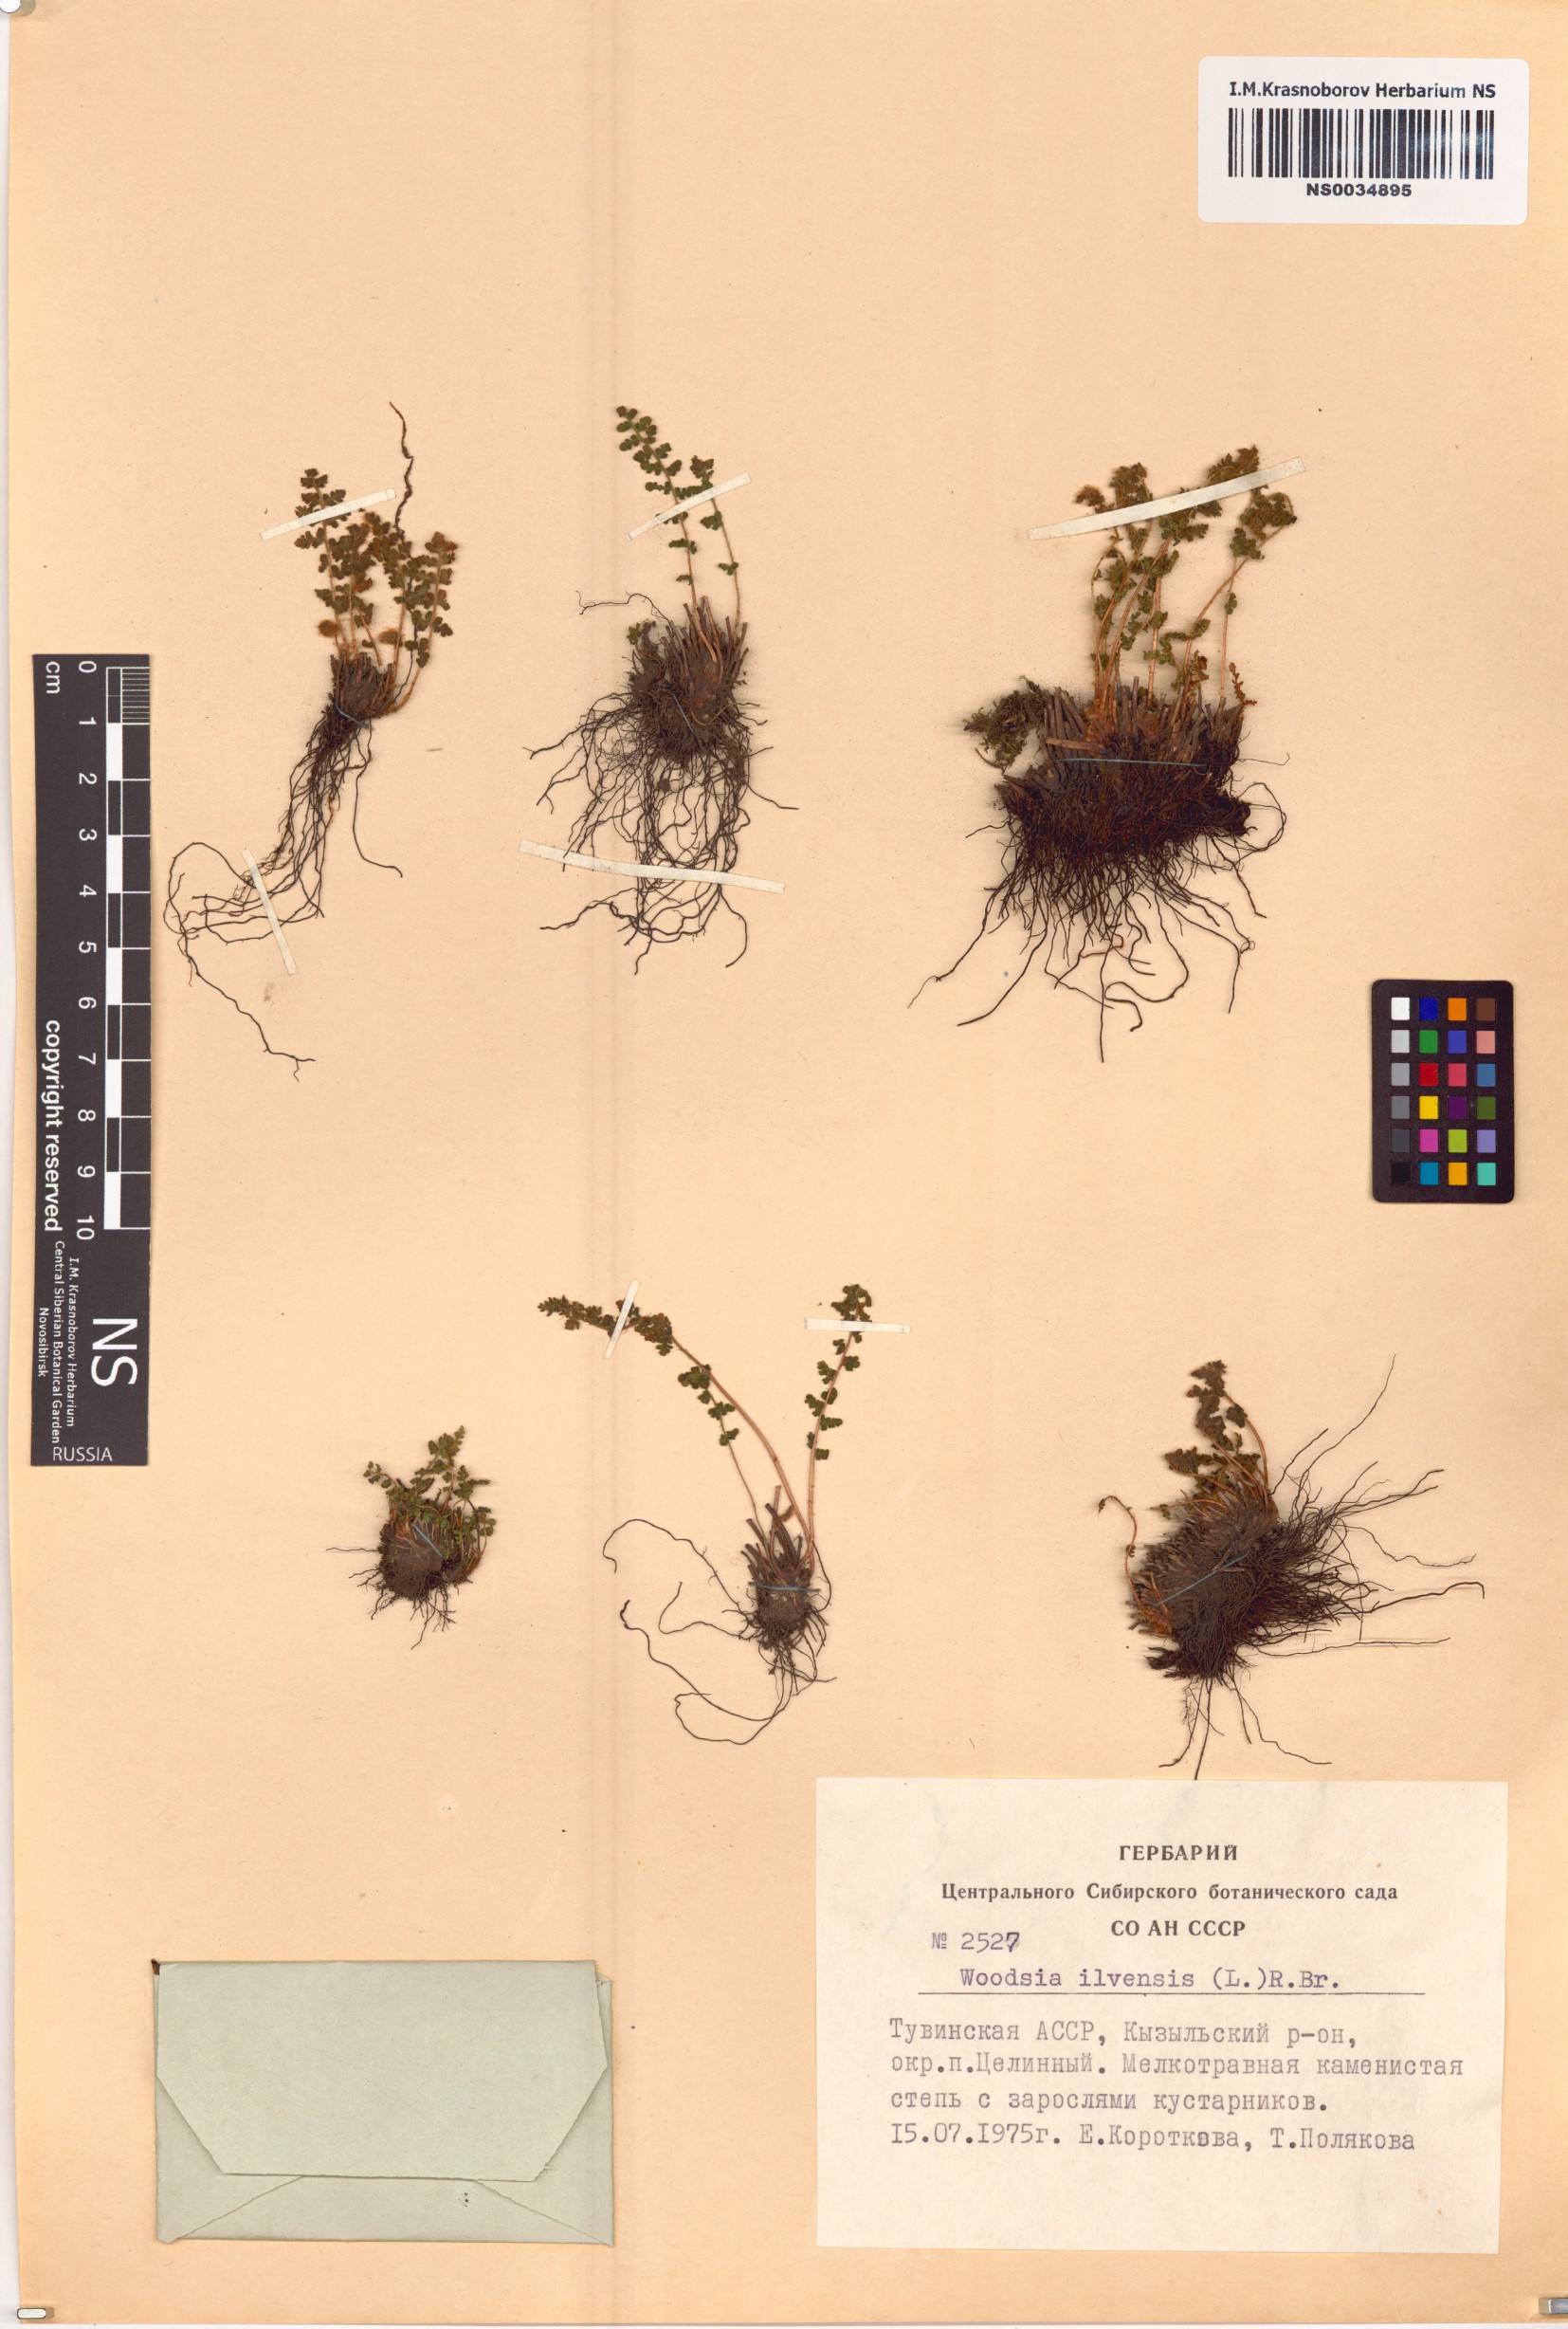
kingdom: Plantae
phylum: Tracheophyta
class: Polypodiopsida
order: Polypodiales
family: Woodsiaceae
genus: Woodsia
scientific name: Woodsia ilvensis
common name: Fragrant woodsia
